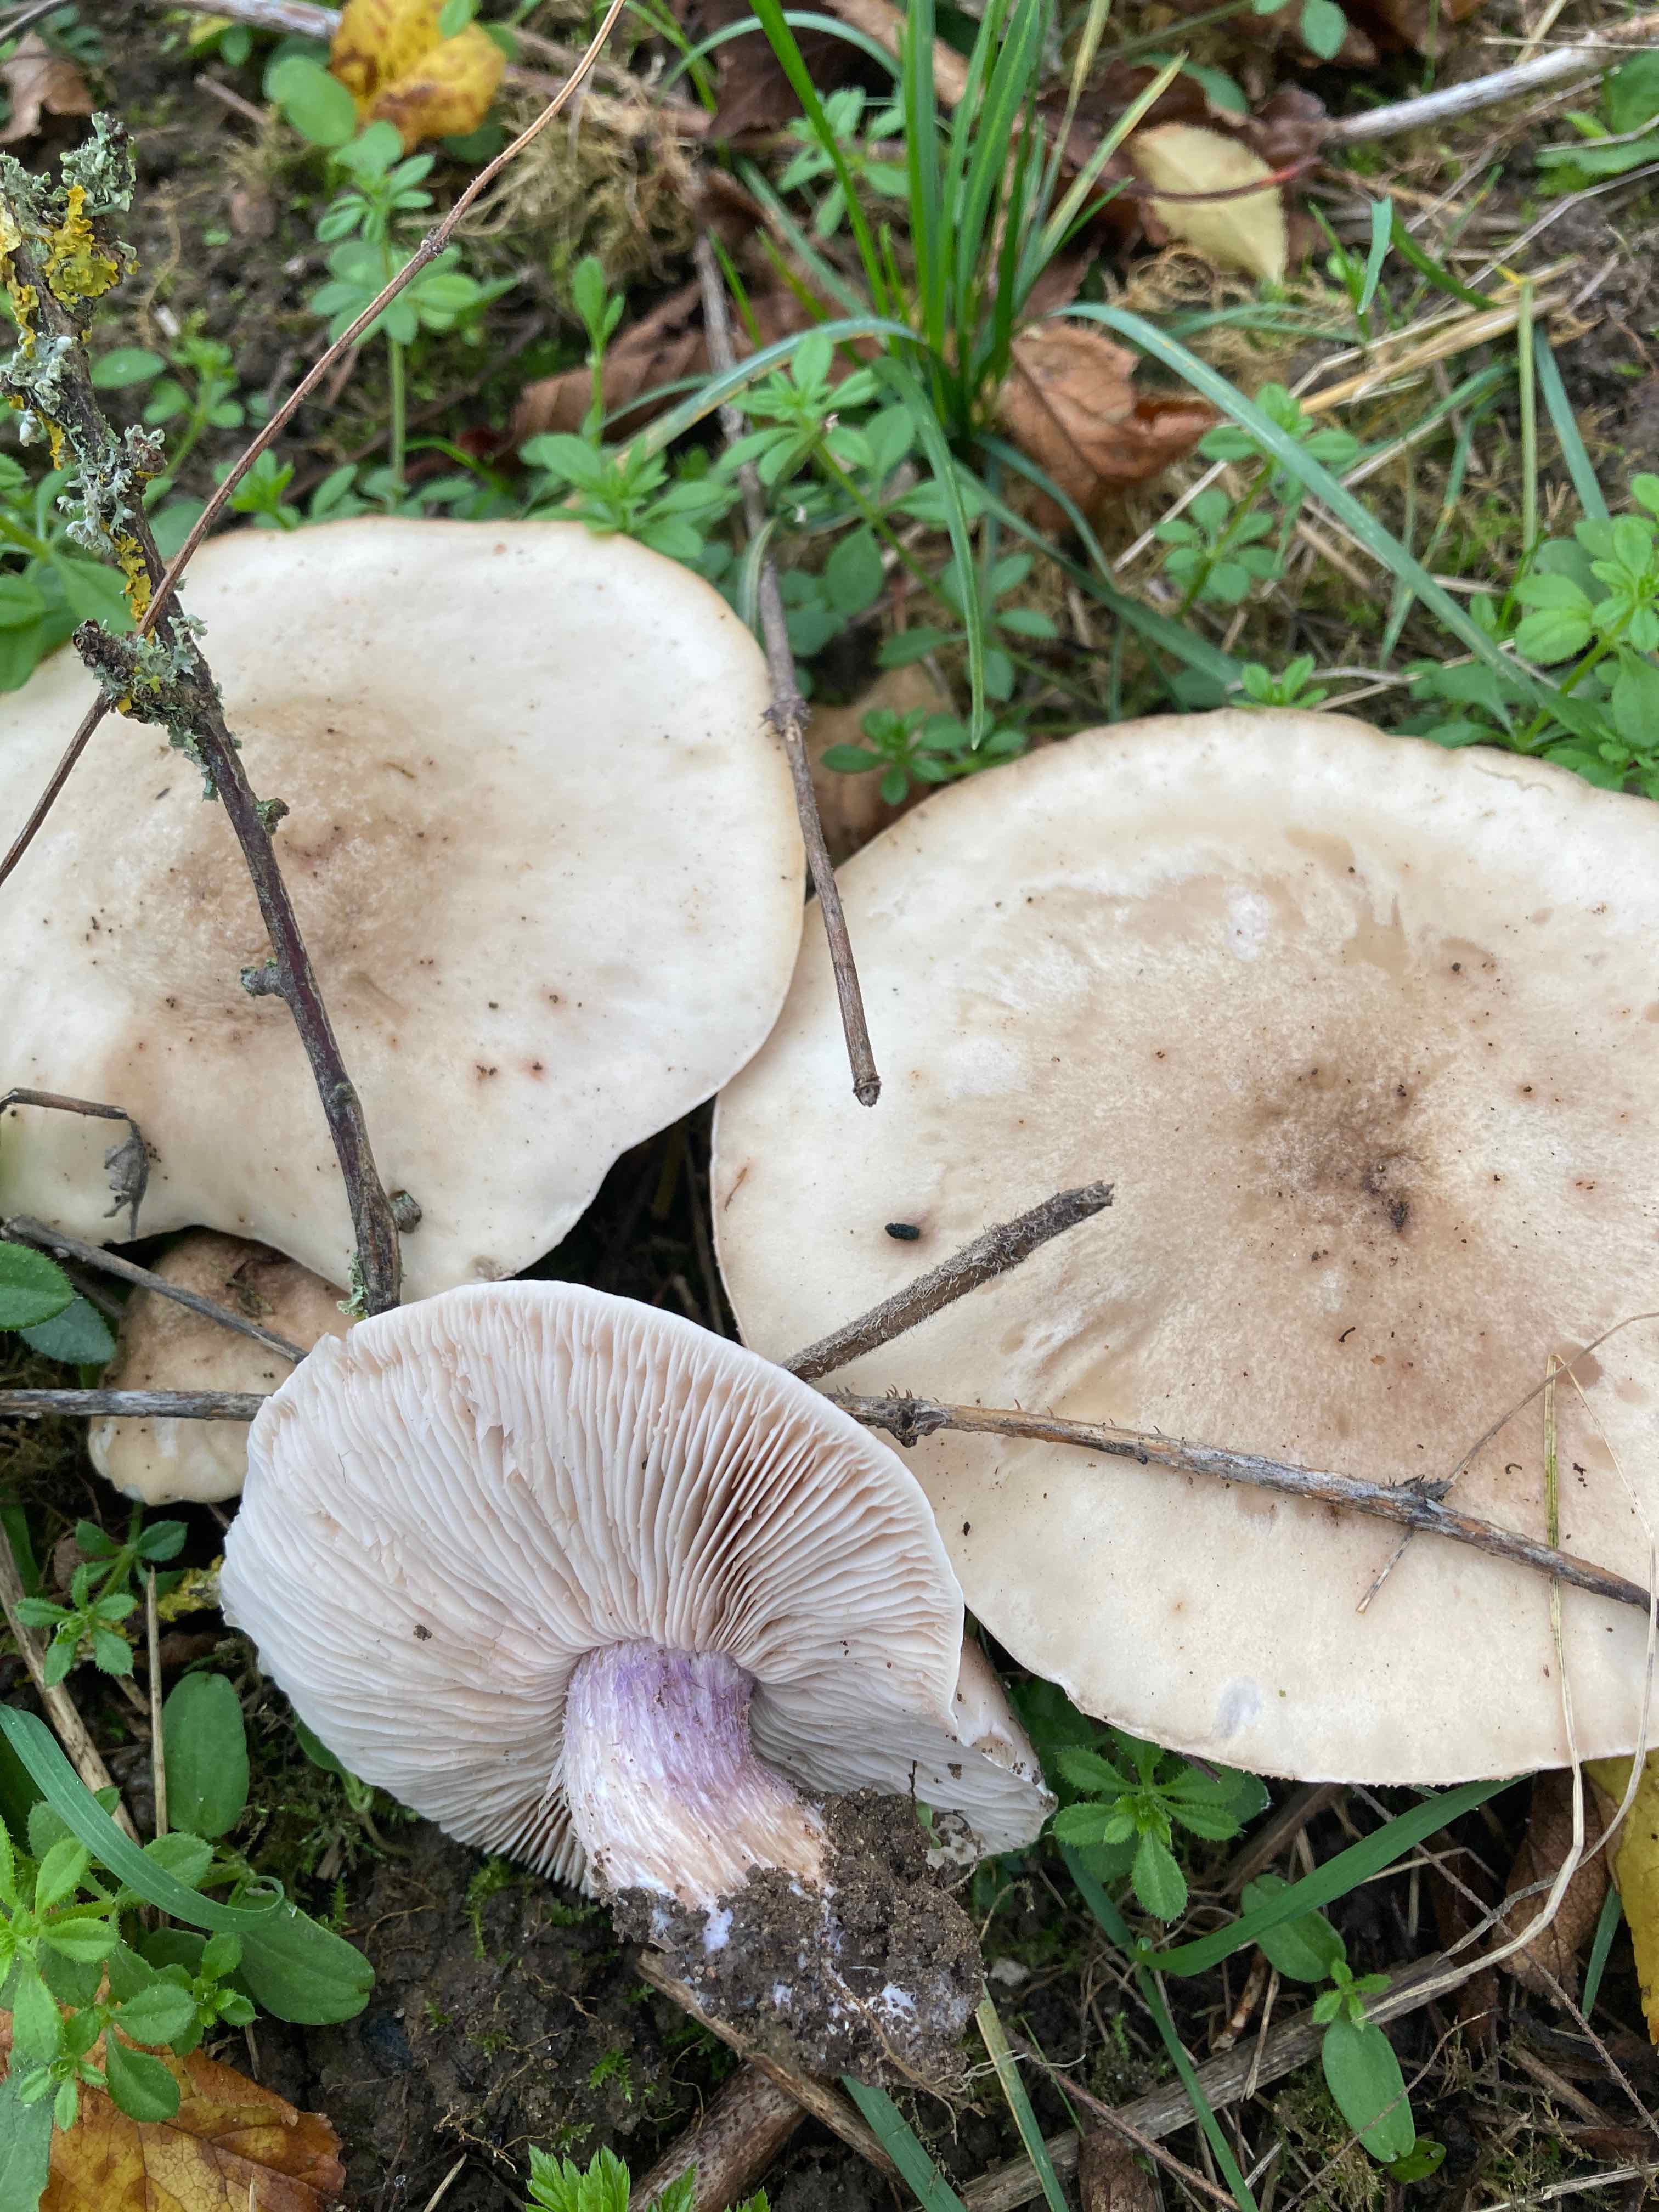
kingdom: Fungi
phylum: Basidiomycota
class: Agaricomycetes
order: Agaricales
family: Tricholomataceae
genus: Lepista
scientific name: Lepista personata
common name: bleg hekseringshat
